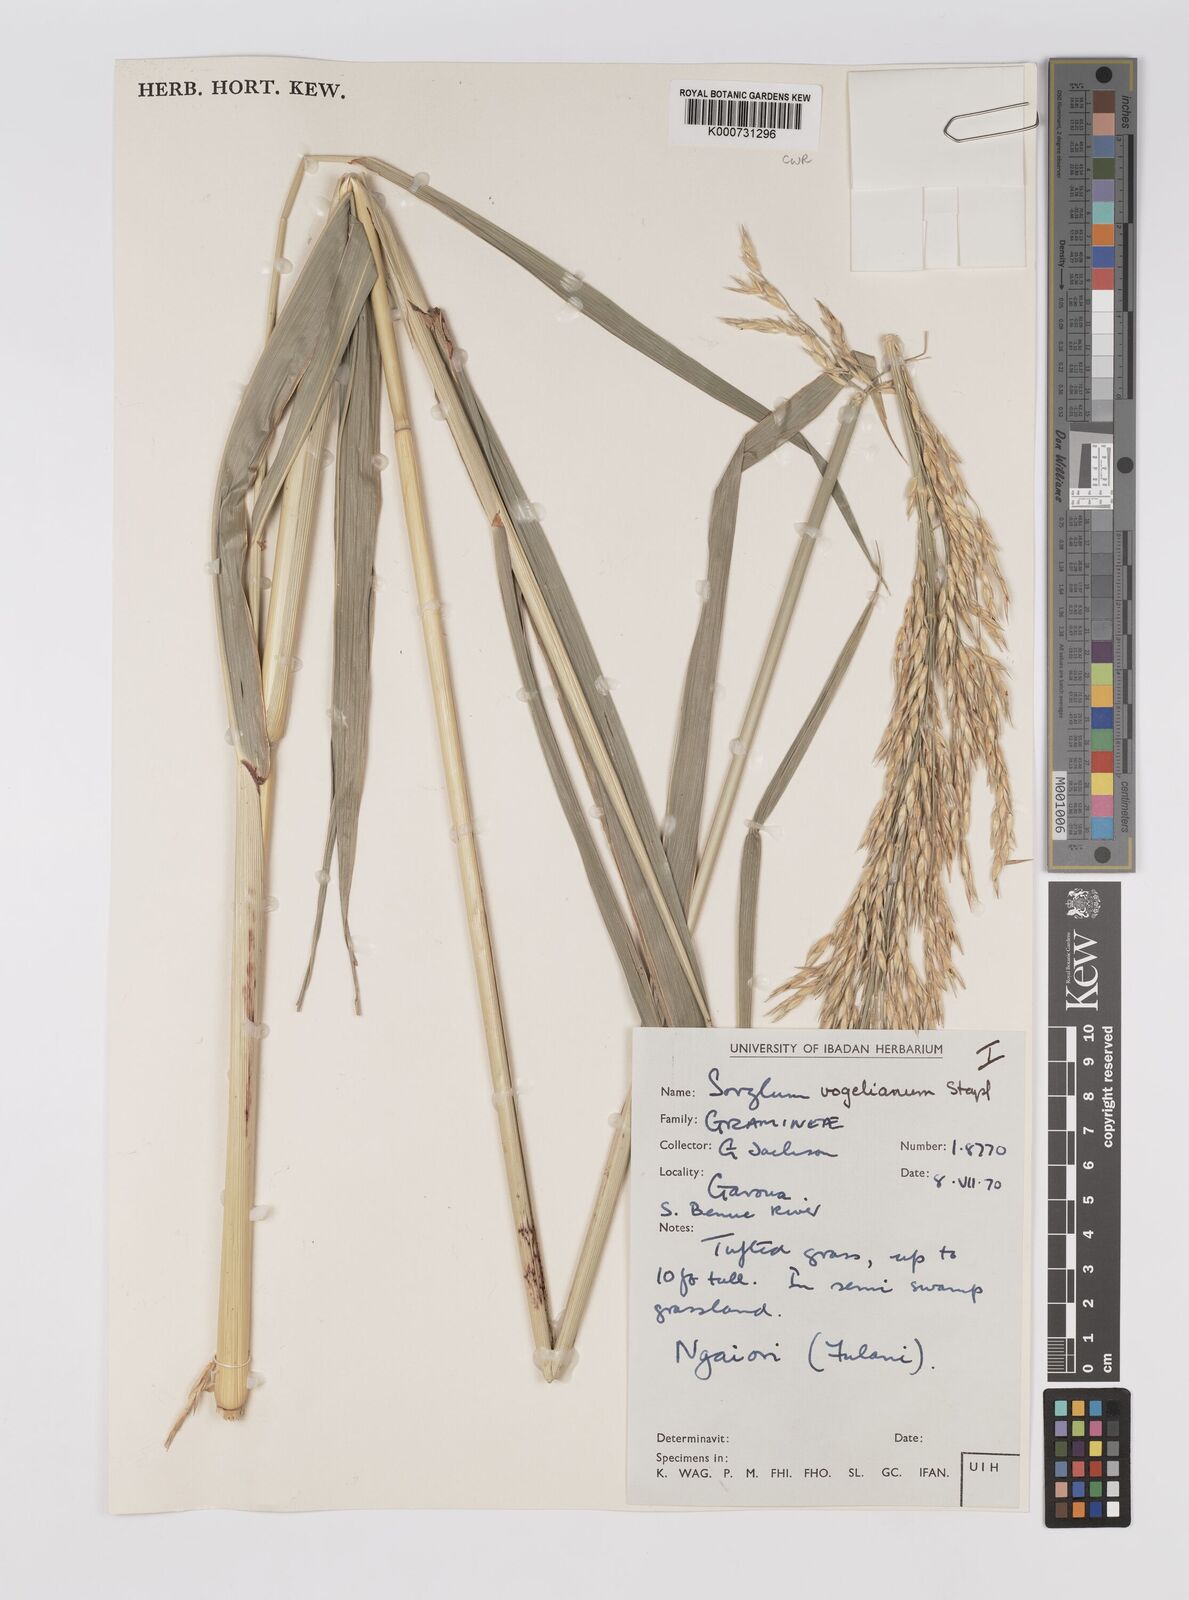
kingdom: Plantae
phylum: Tracheophyta
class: Liliopsida
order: Poales
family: Poaceae
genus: Sorghum
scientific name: Sorghum arundinaceum
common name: Sorghum
